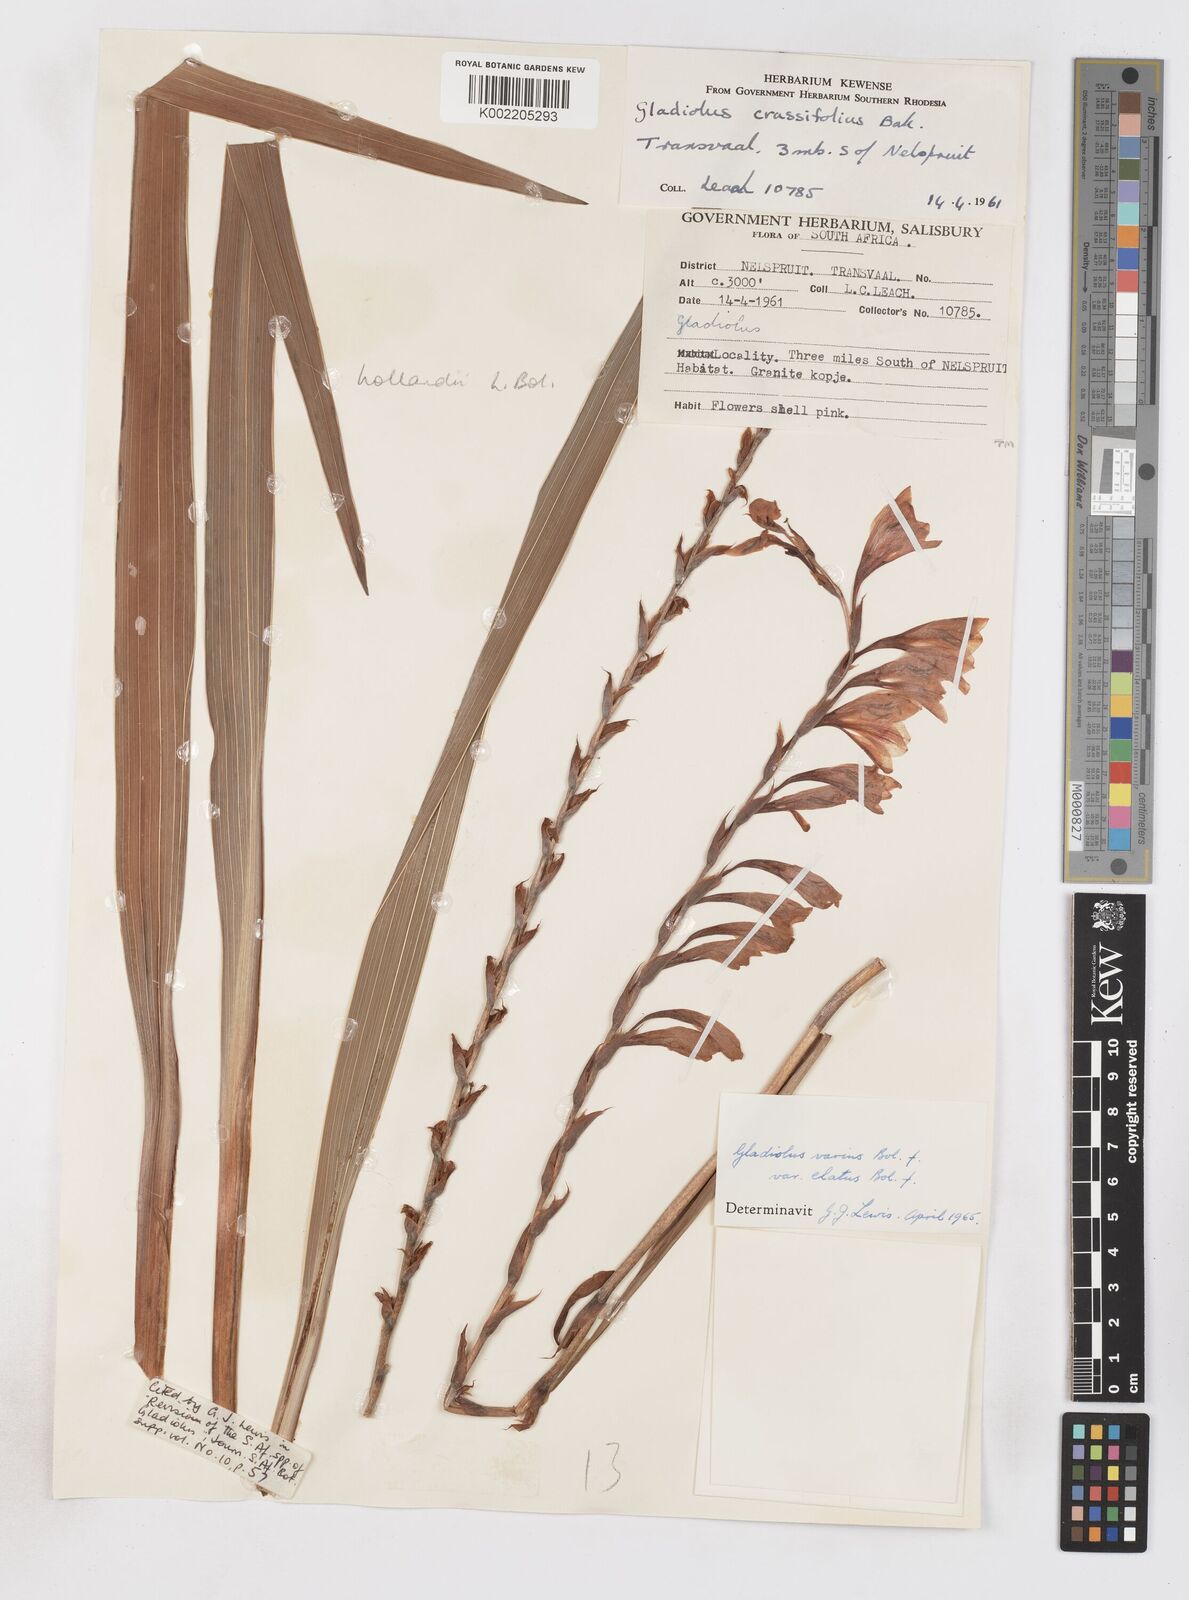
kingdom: Plantae
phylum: Tracheophyta
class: Liliopsida
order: Asparagales
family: Iridaceae
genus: Gladiolus
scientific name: Gladiolus hollandii
